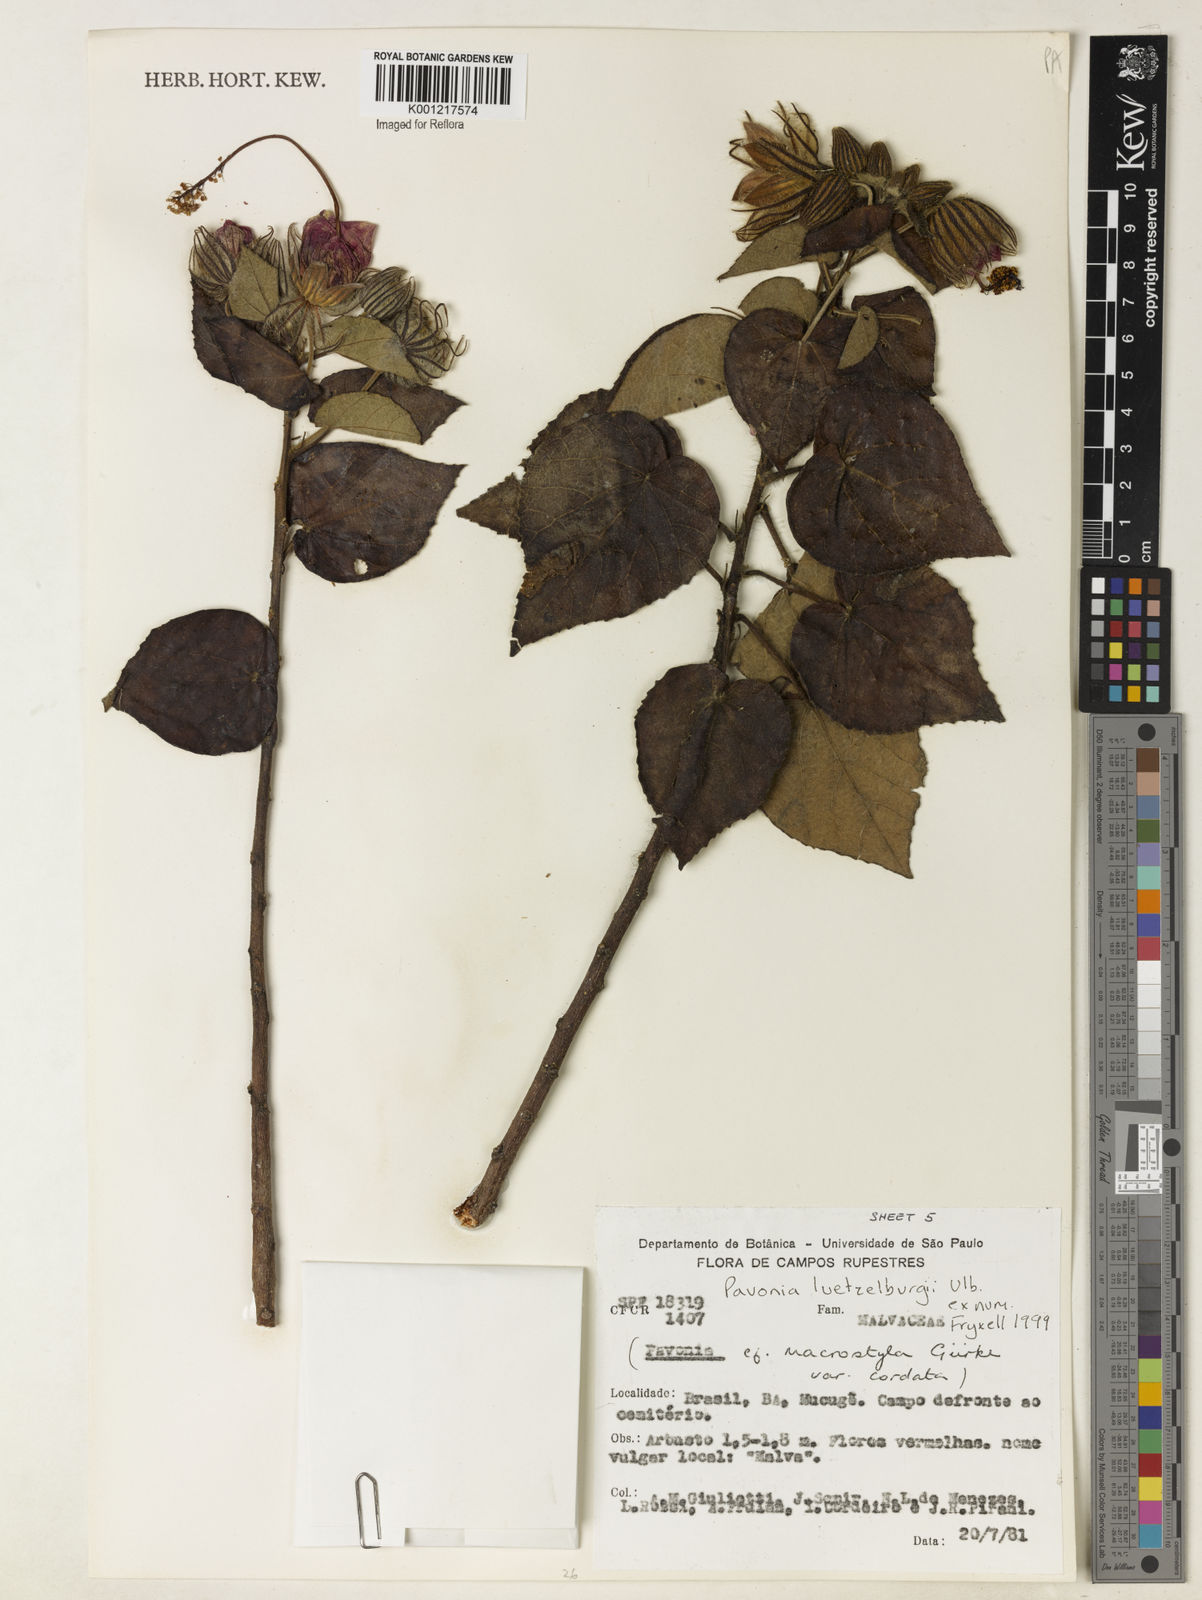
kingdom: Plantae
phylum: Tracheophyta
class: Magnoliopsida
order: Malvales
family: Malvaceae
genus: Pavonia
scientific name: Pavonia luetzelburgii
